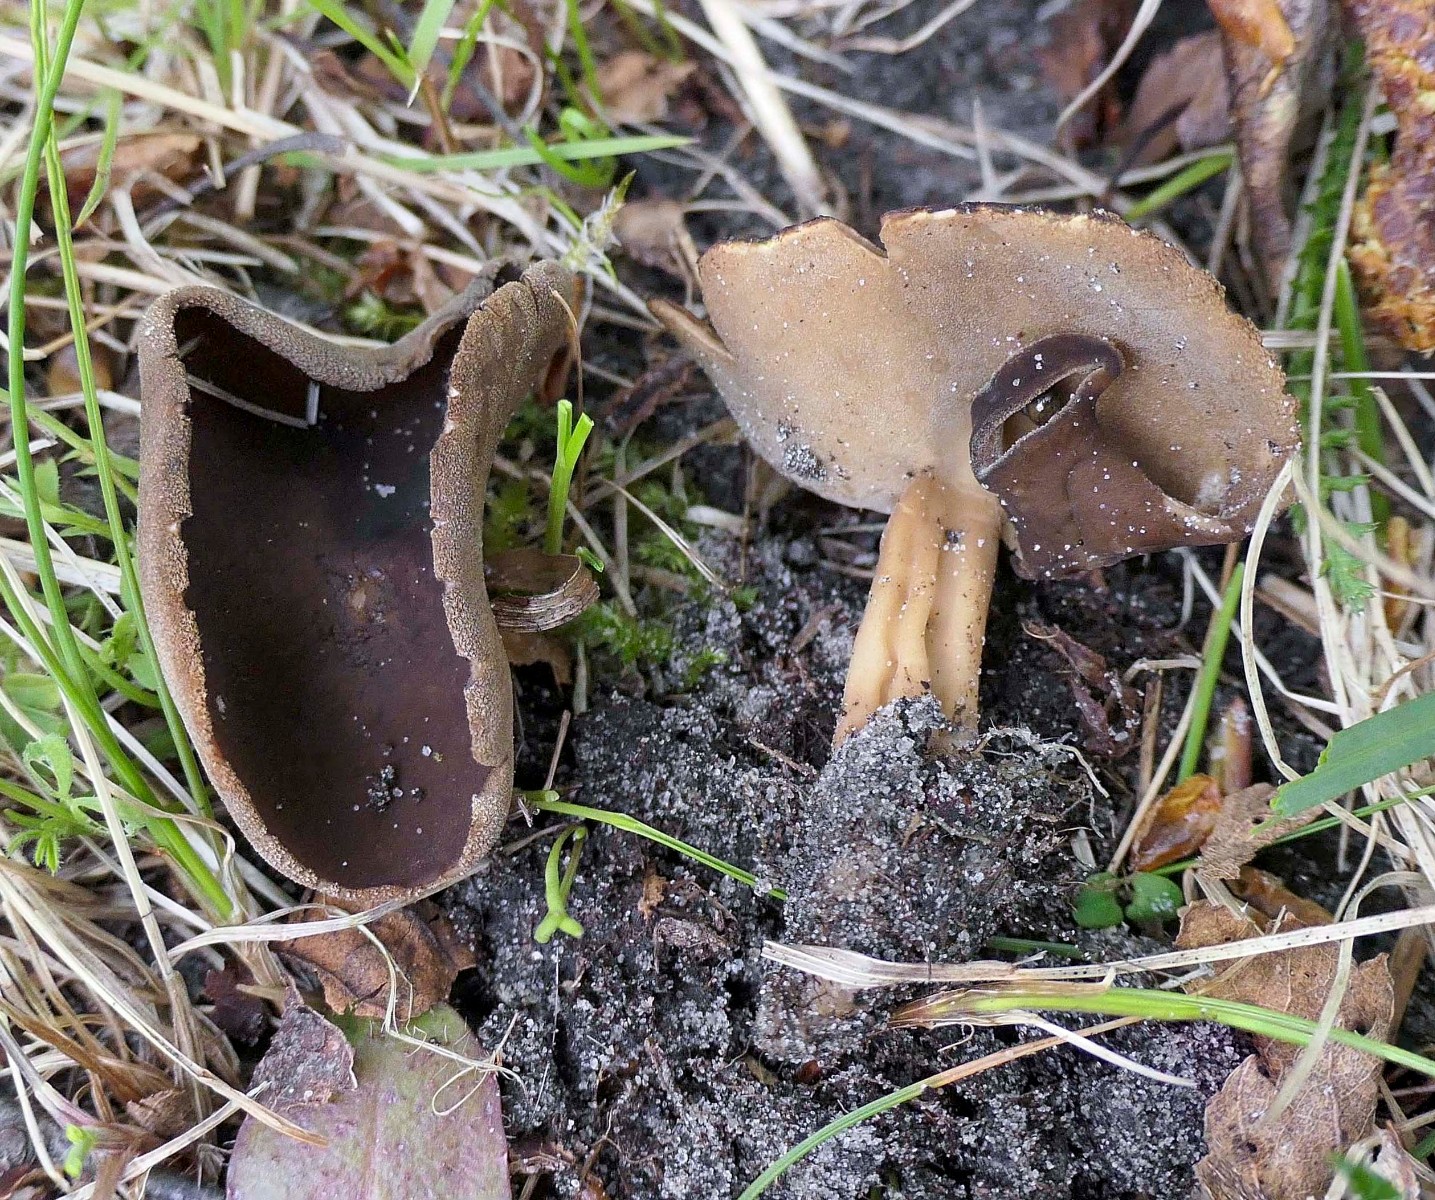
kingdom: Fungi
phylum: Ascomycota
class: Pezizomycetes
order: Pezizales
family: Helvellaceae
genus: Helvella
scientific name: Helvella solitaria
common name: Quélets foldhat
